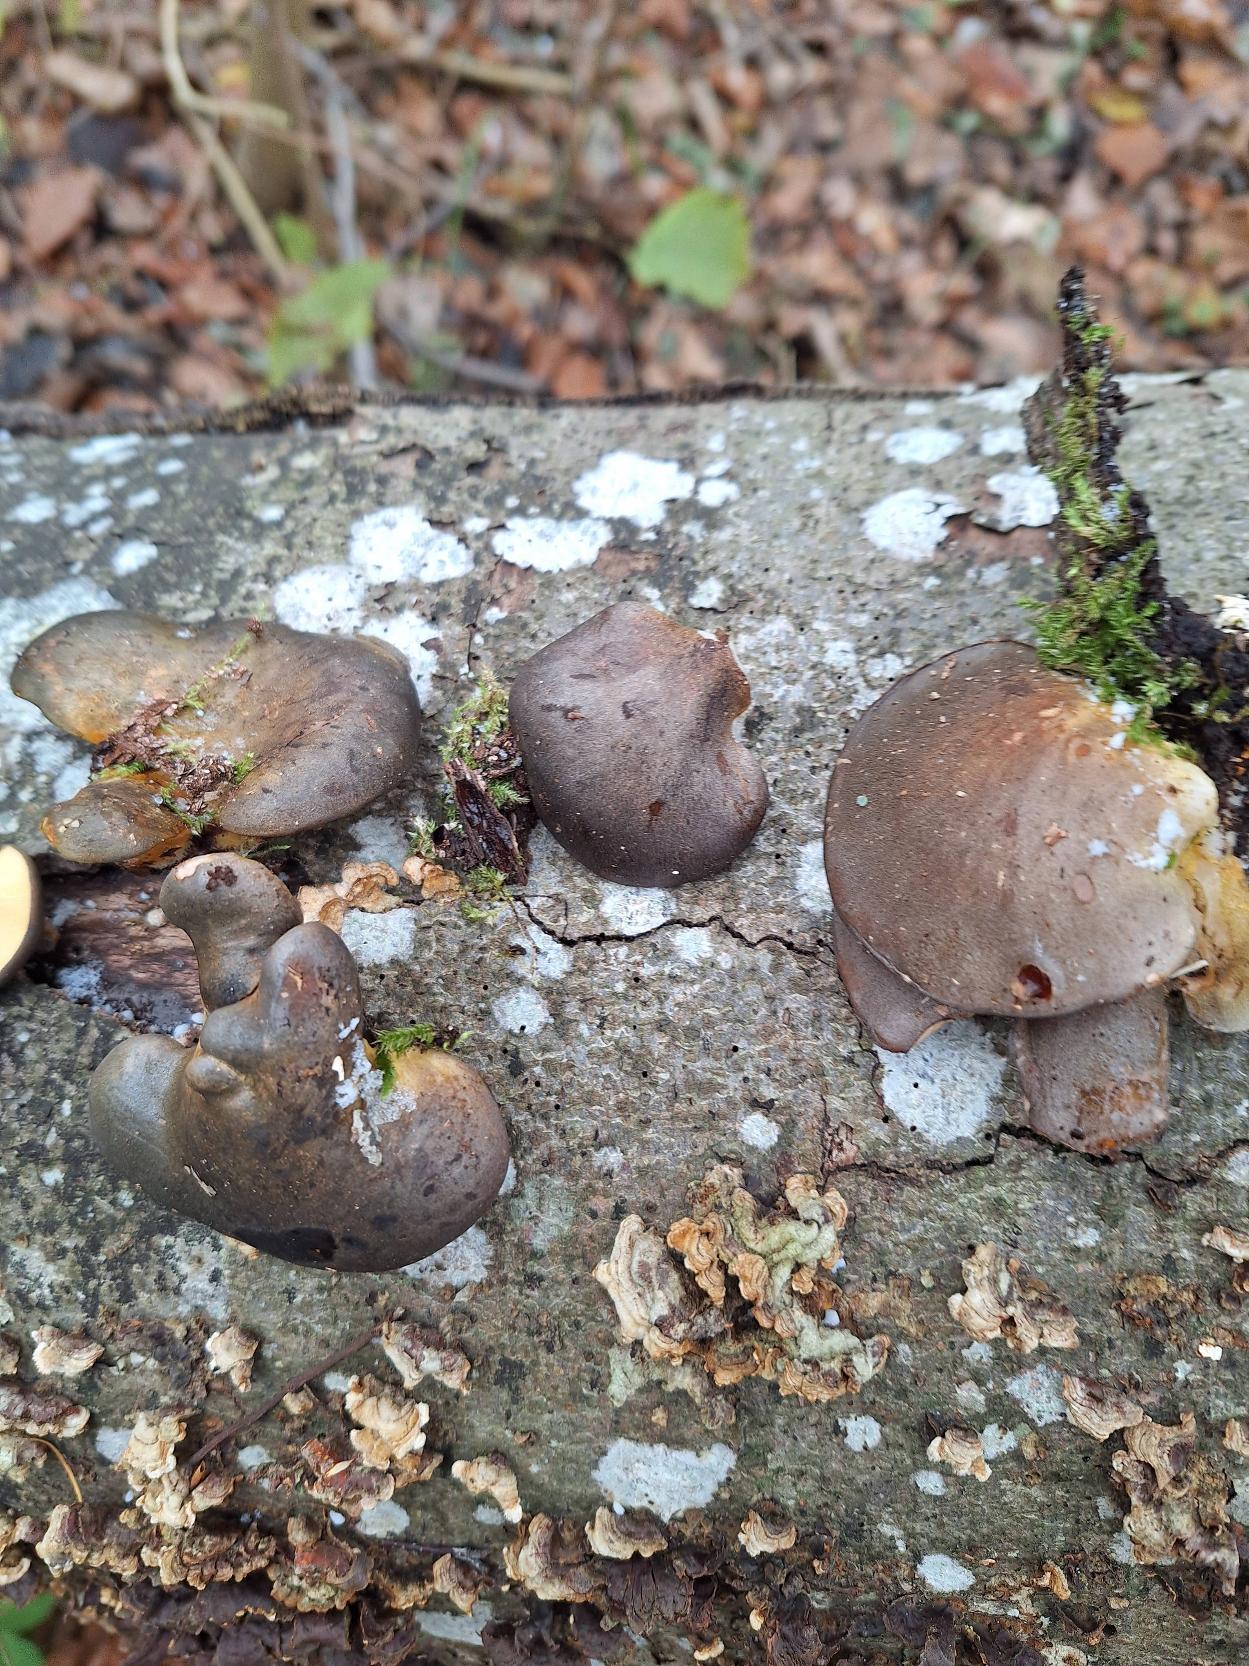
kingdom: Fungi
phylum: Basidiomycota
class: Agaricomycetes
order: Agaricales
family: Sarcomyxaceae
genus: Sarcomyxa
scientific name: Sarcomyxa serotina
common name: Gummihat
